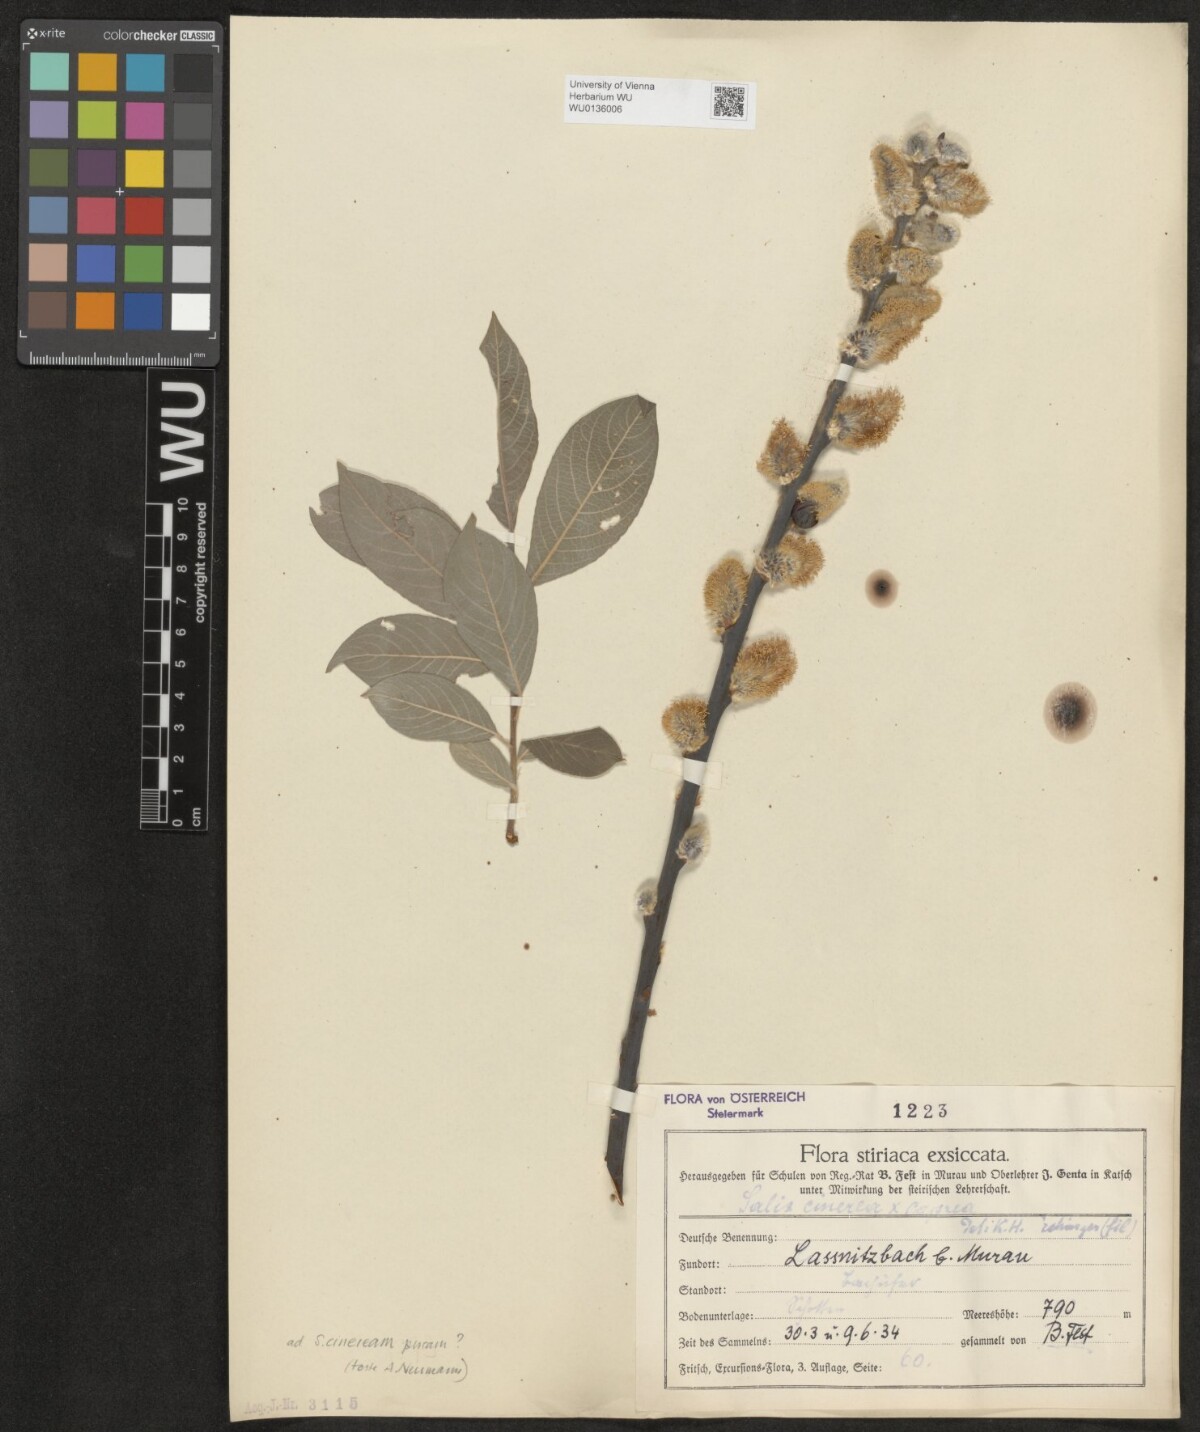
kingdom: Plantae
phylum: Tracheophyta
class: Magnoliopsida
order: Malpighiales
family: Salicaceae
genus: Salix
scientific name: Salix cinerea
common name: Common sallow
